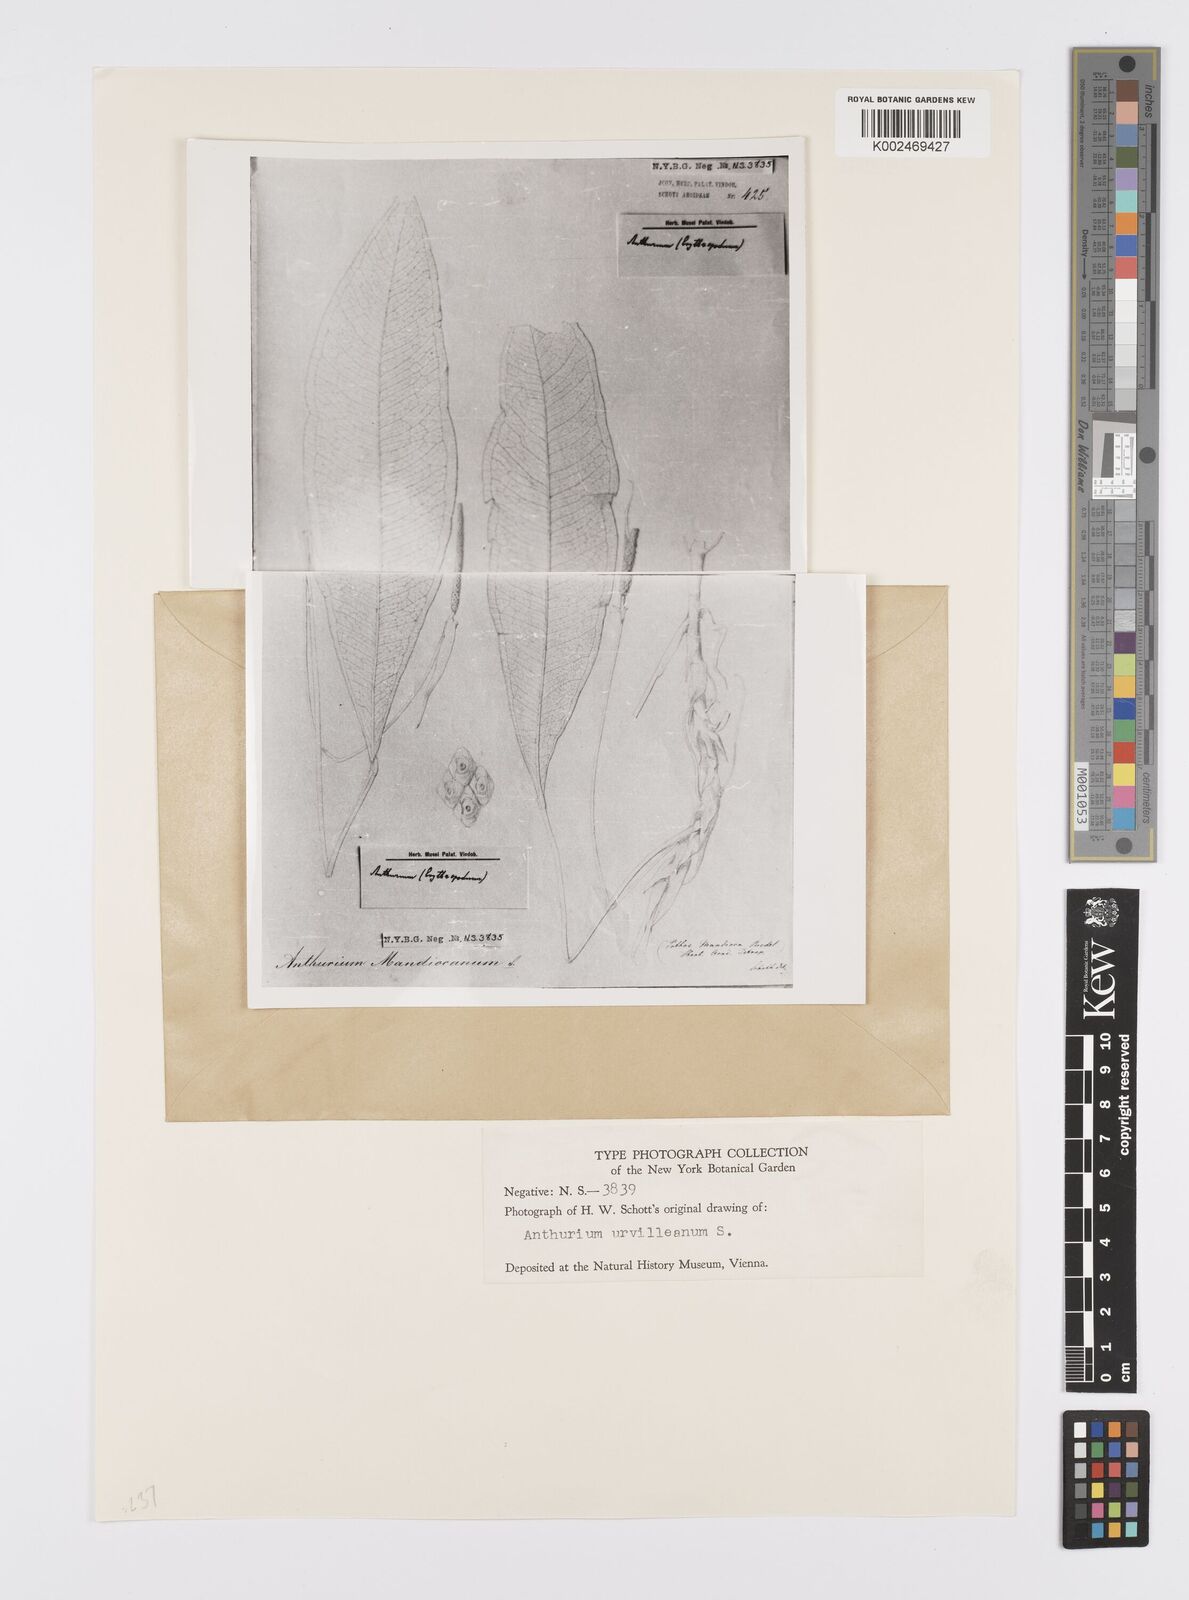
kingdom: Plantae
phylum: Tracheophyta
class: Liliopsida
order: Alismatales
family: Araceae
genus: Anthurium
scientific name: Anthurium harrisii
